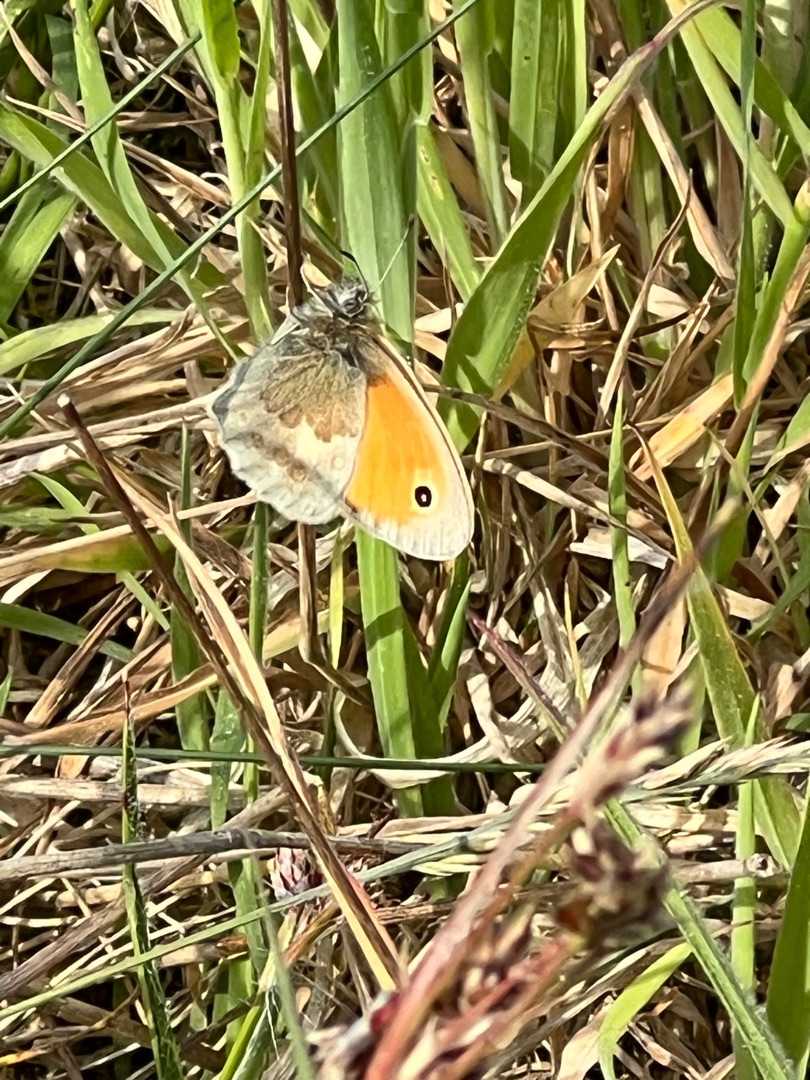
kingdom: Animalia
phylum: Arthropoda
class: Insecta
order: Lepidoptera
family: Nymphalidae
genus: Coenonympha
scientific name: Coenonympha pamphilus
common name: Okkergul randøje
